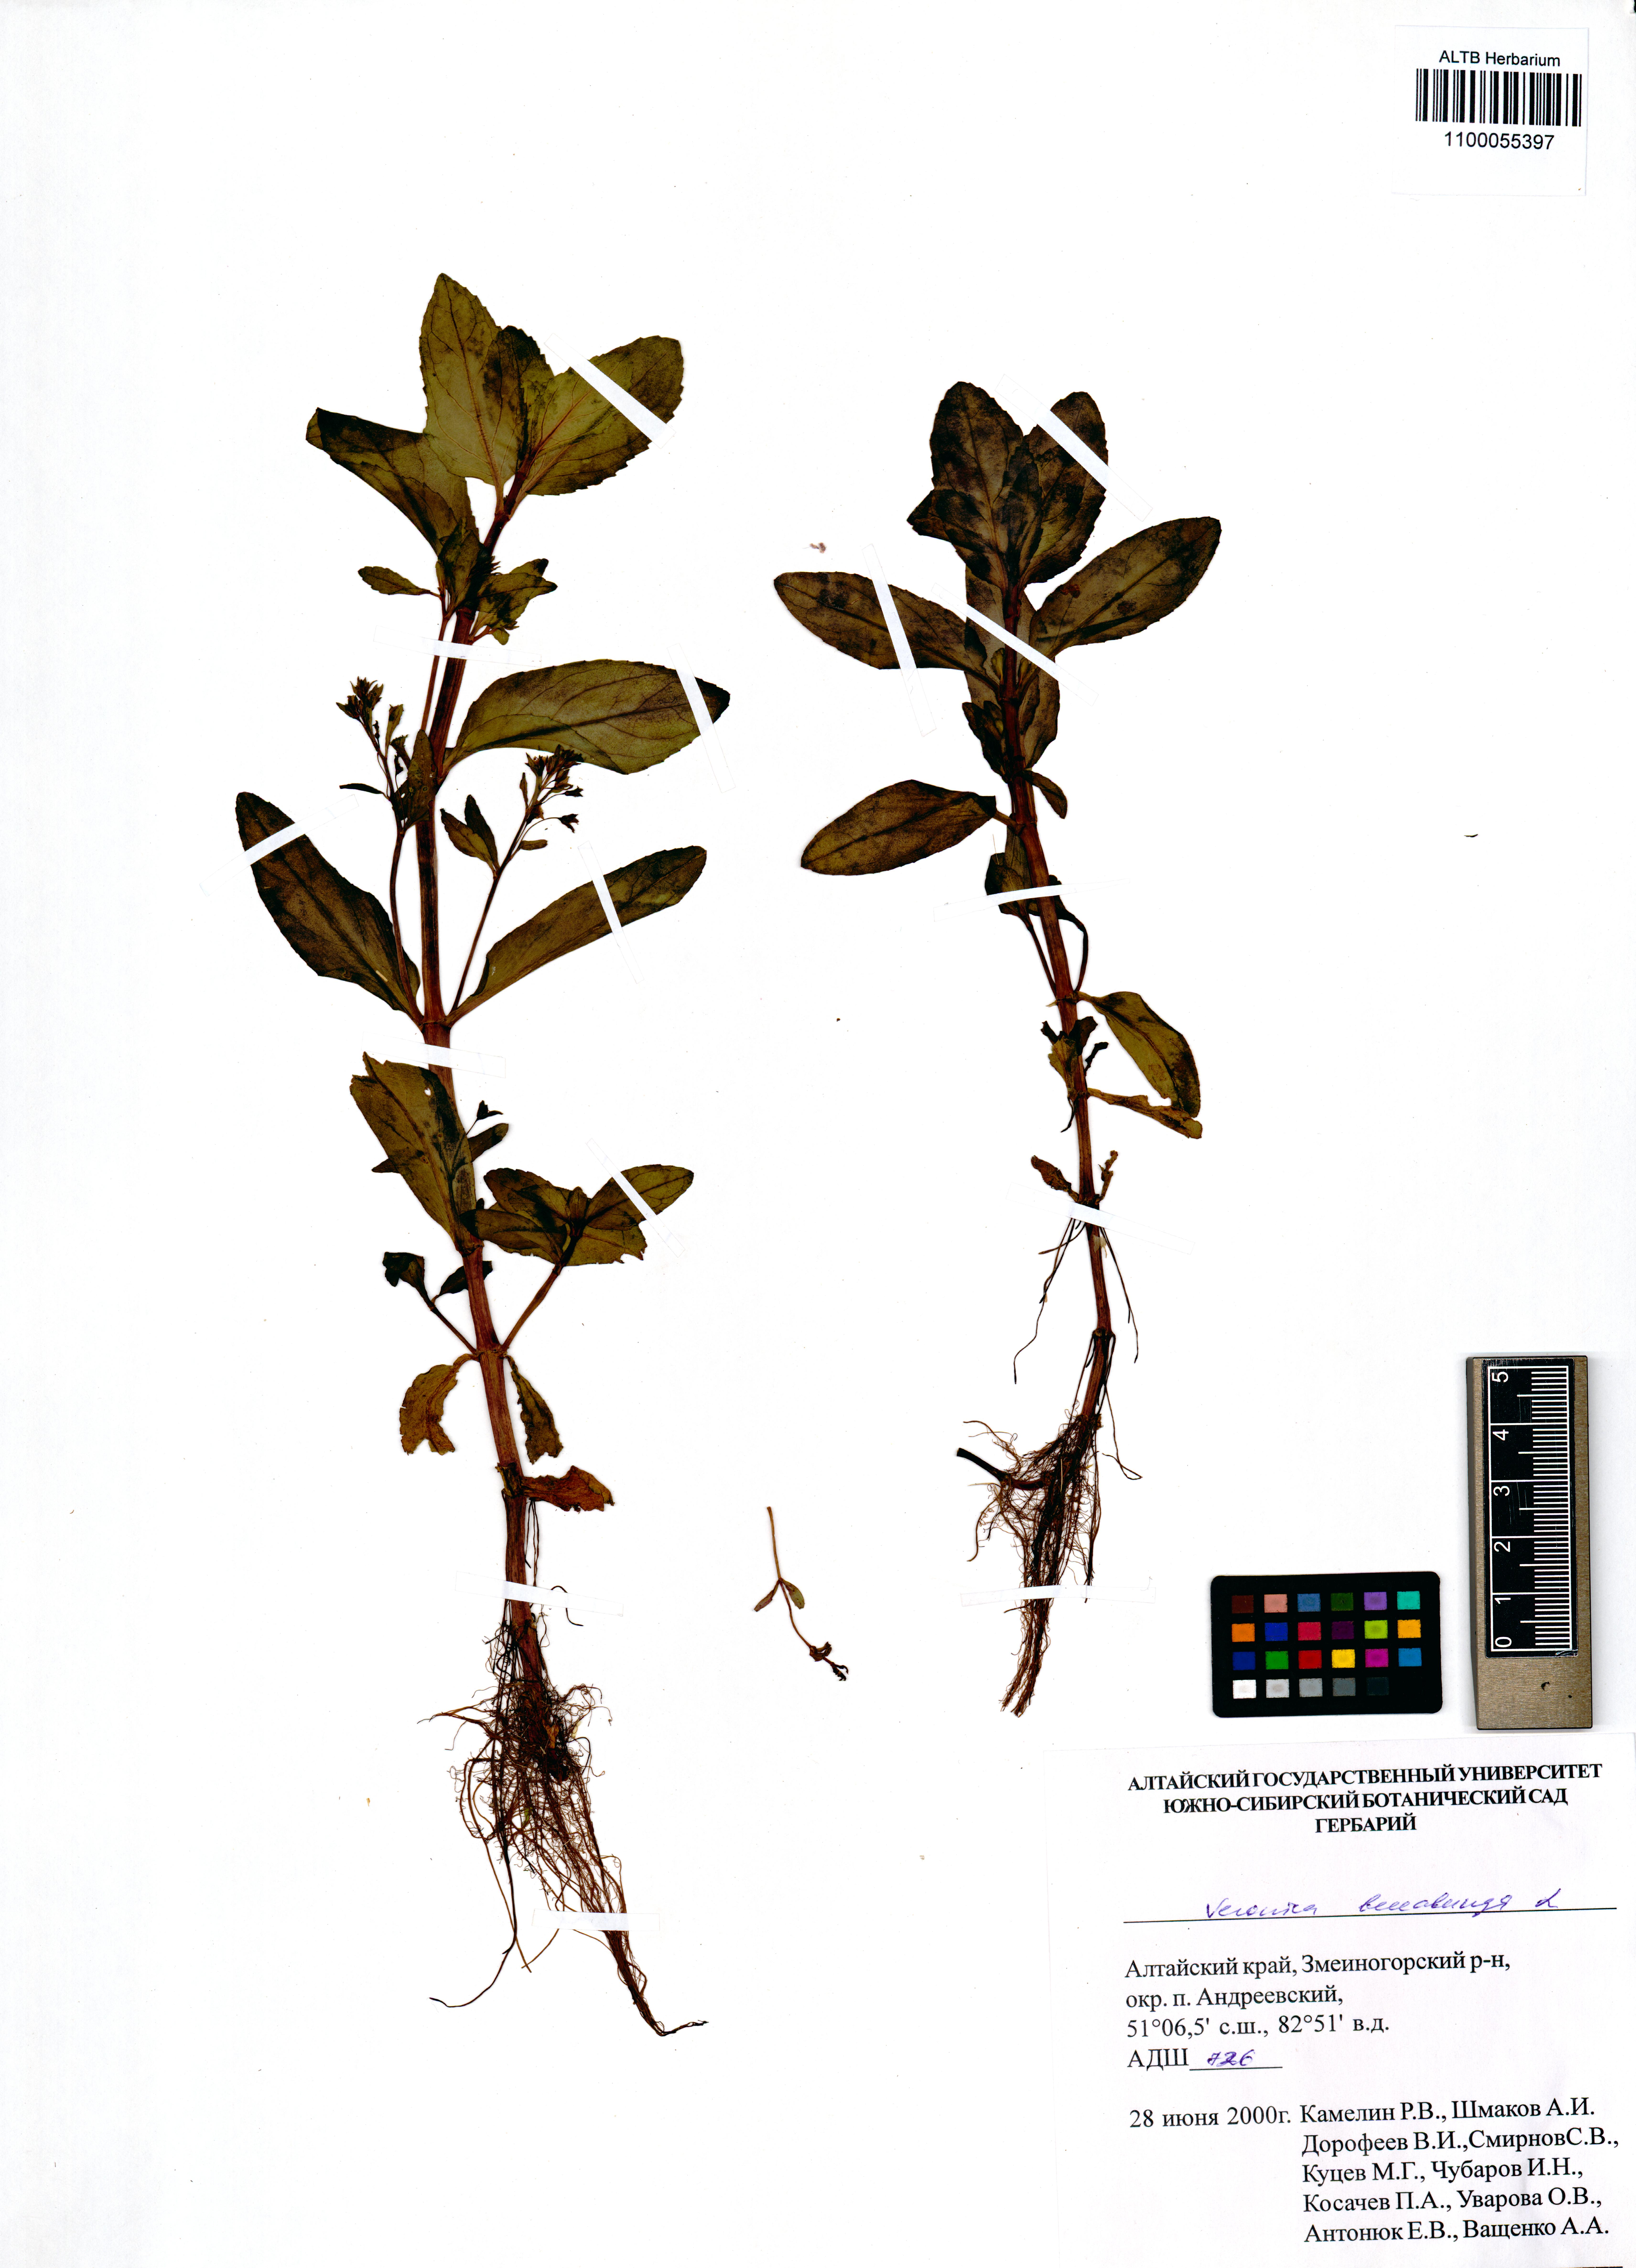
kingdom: Plantae
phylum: Tracheophyta
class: Magnoliopsida
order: Lamiales
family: Plantaginaceae
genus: Veronica
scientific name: Veronica beccabunga
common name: Brooklime
